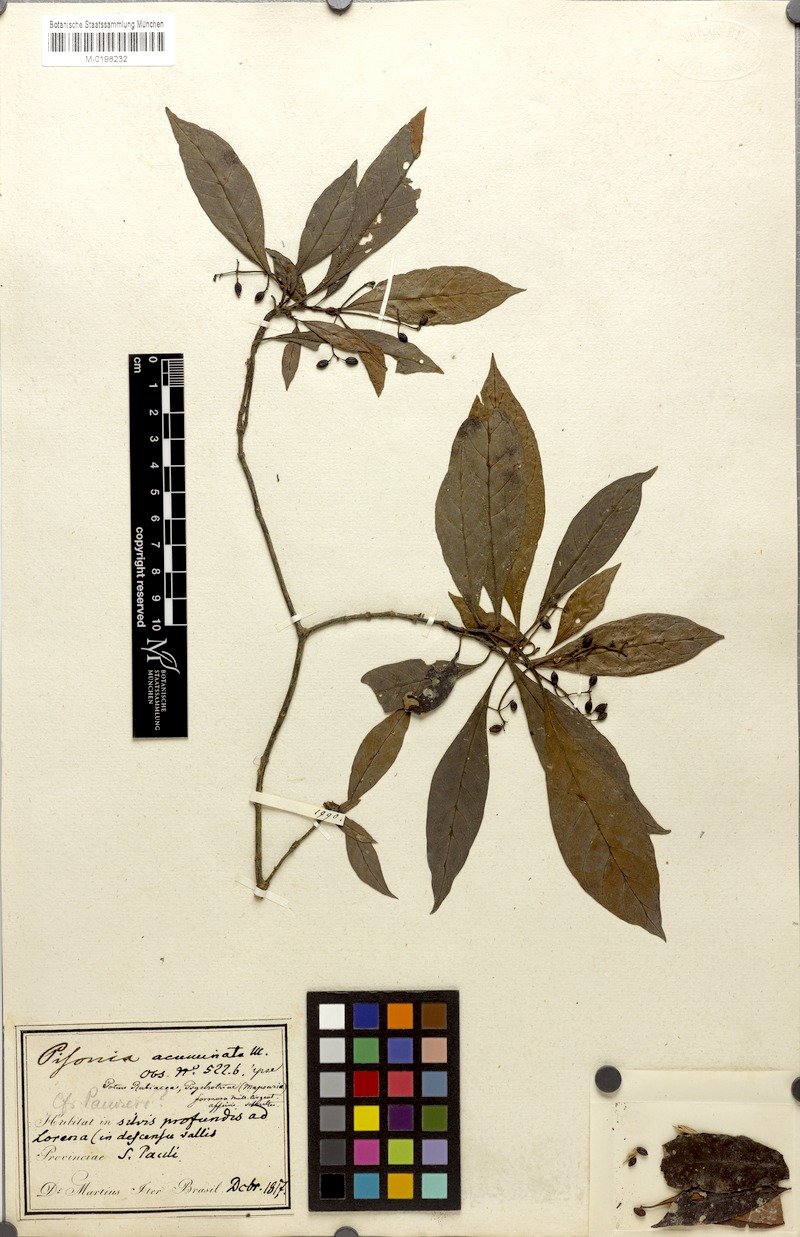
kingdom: Plantae
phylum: Tracheophyta
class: Magnoliopsida
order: Caryophyllales
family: Nyctaginaceae
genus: Guapira
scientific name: Guapira opposita
